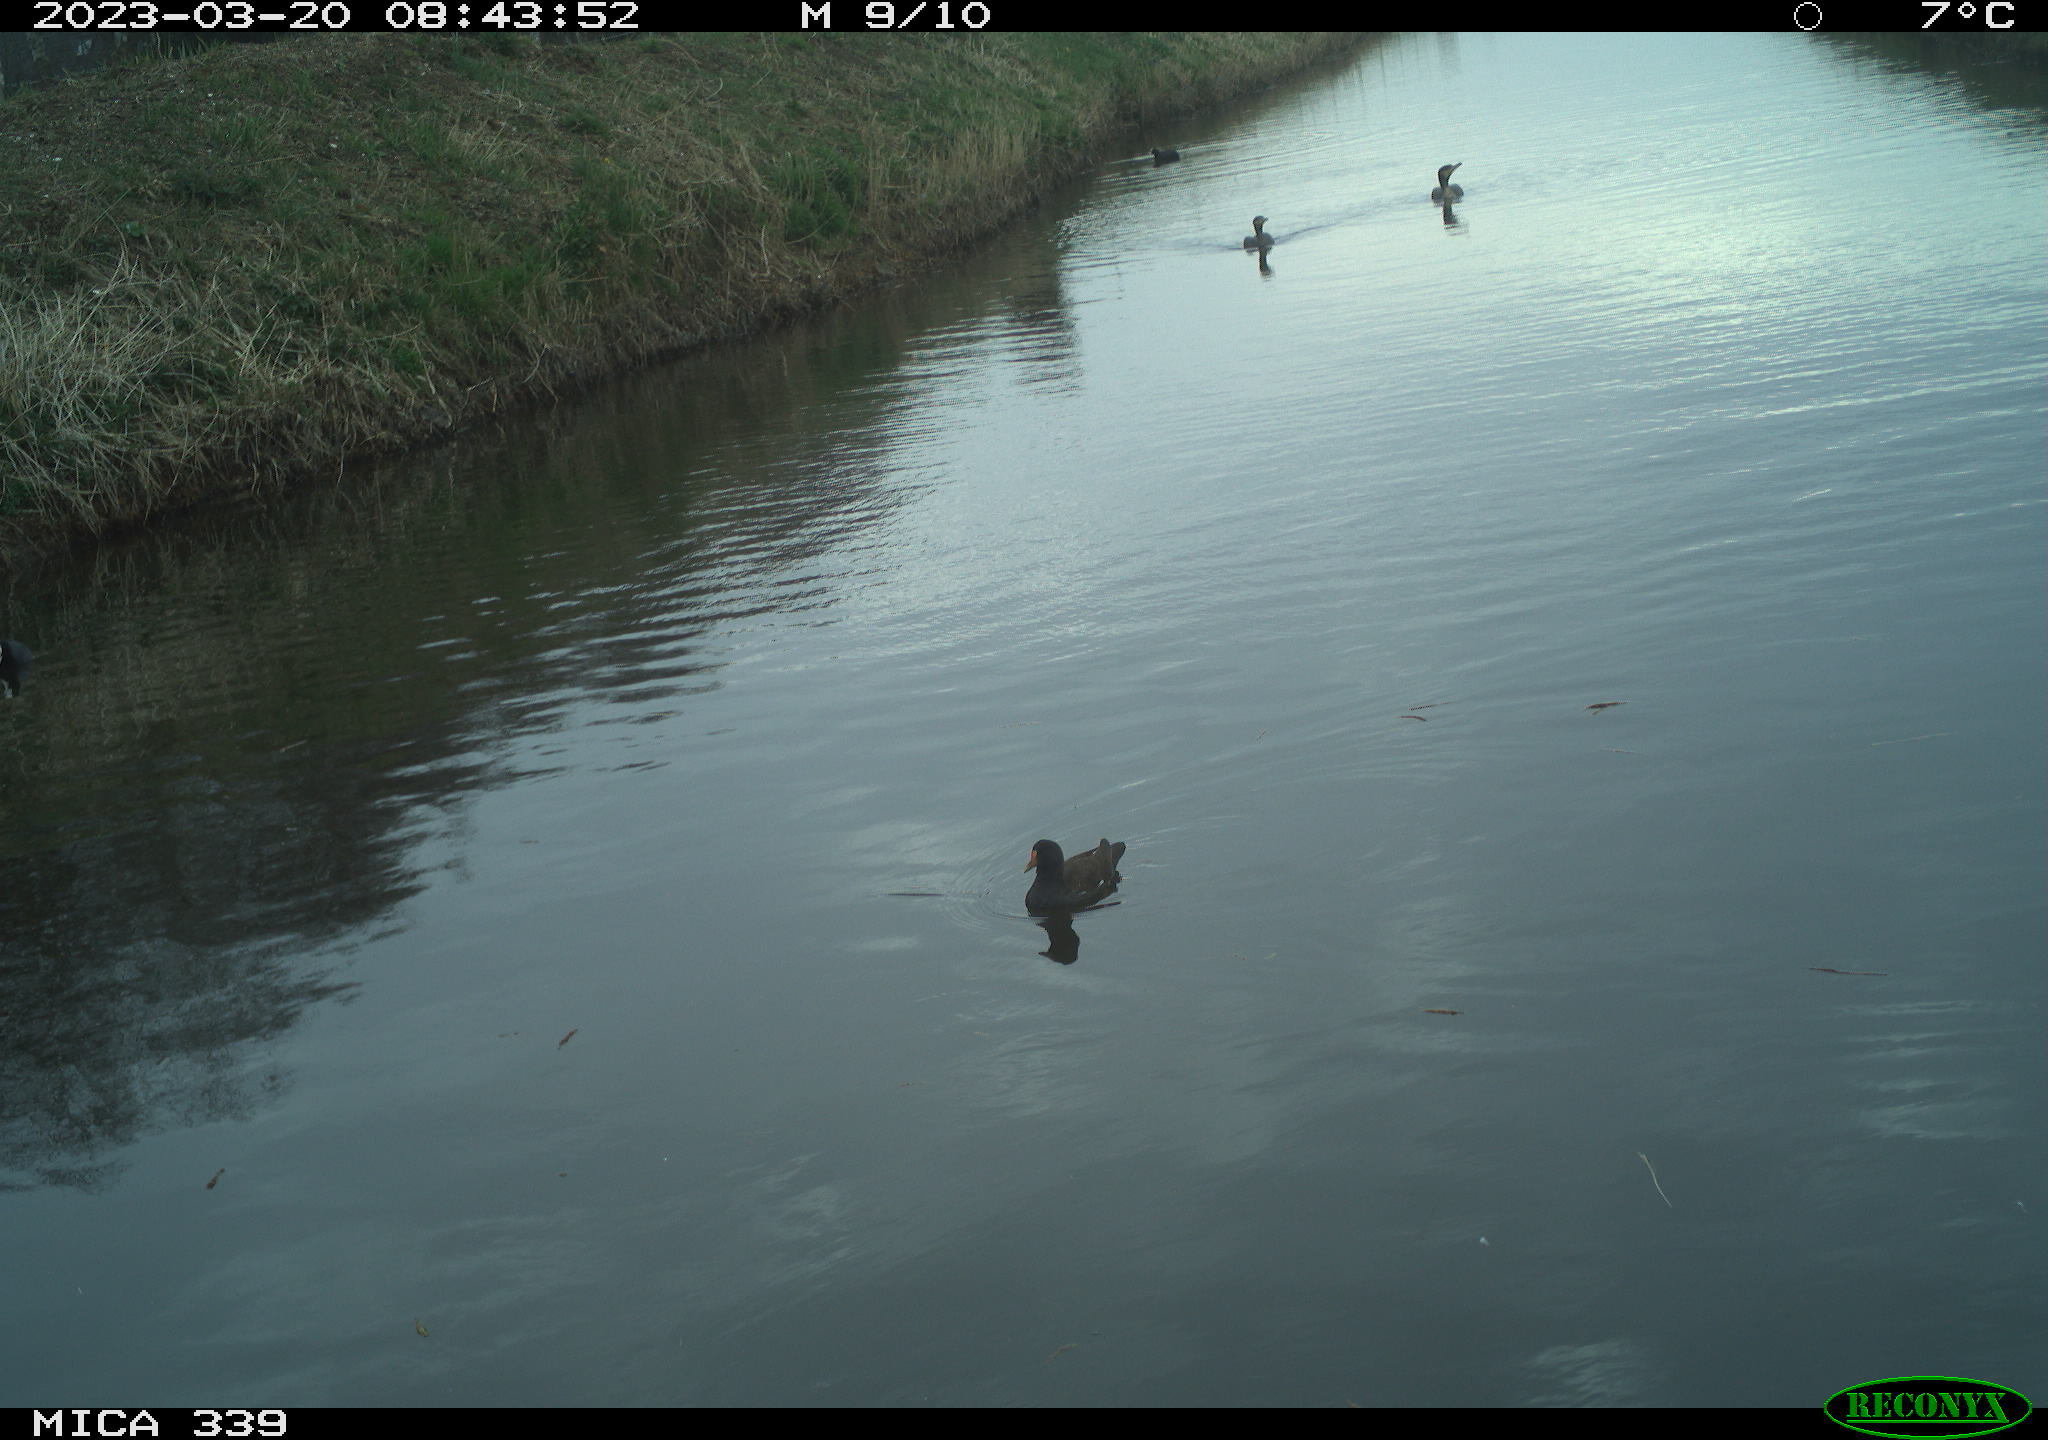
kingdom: Animalia
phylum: Chordata
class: Aves
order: Gruiformes
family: Rallidae
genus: Gallinula
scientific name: Gallinula chloropus
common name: Common moorhen
